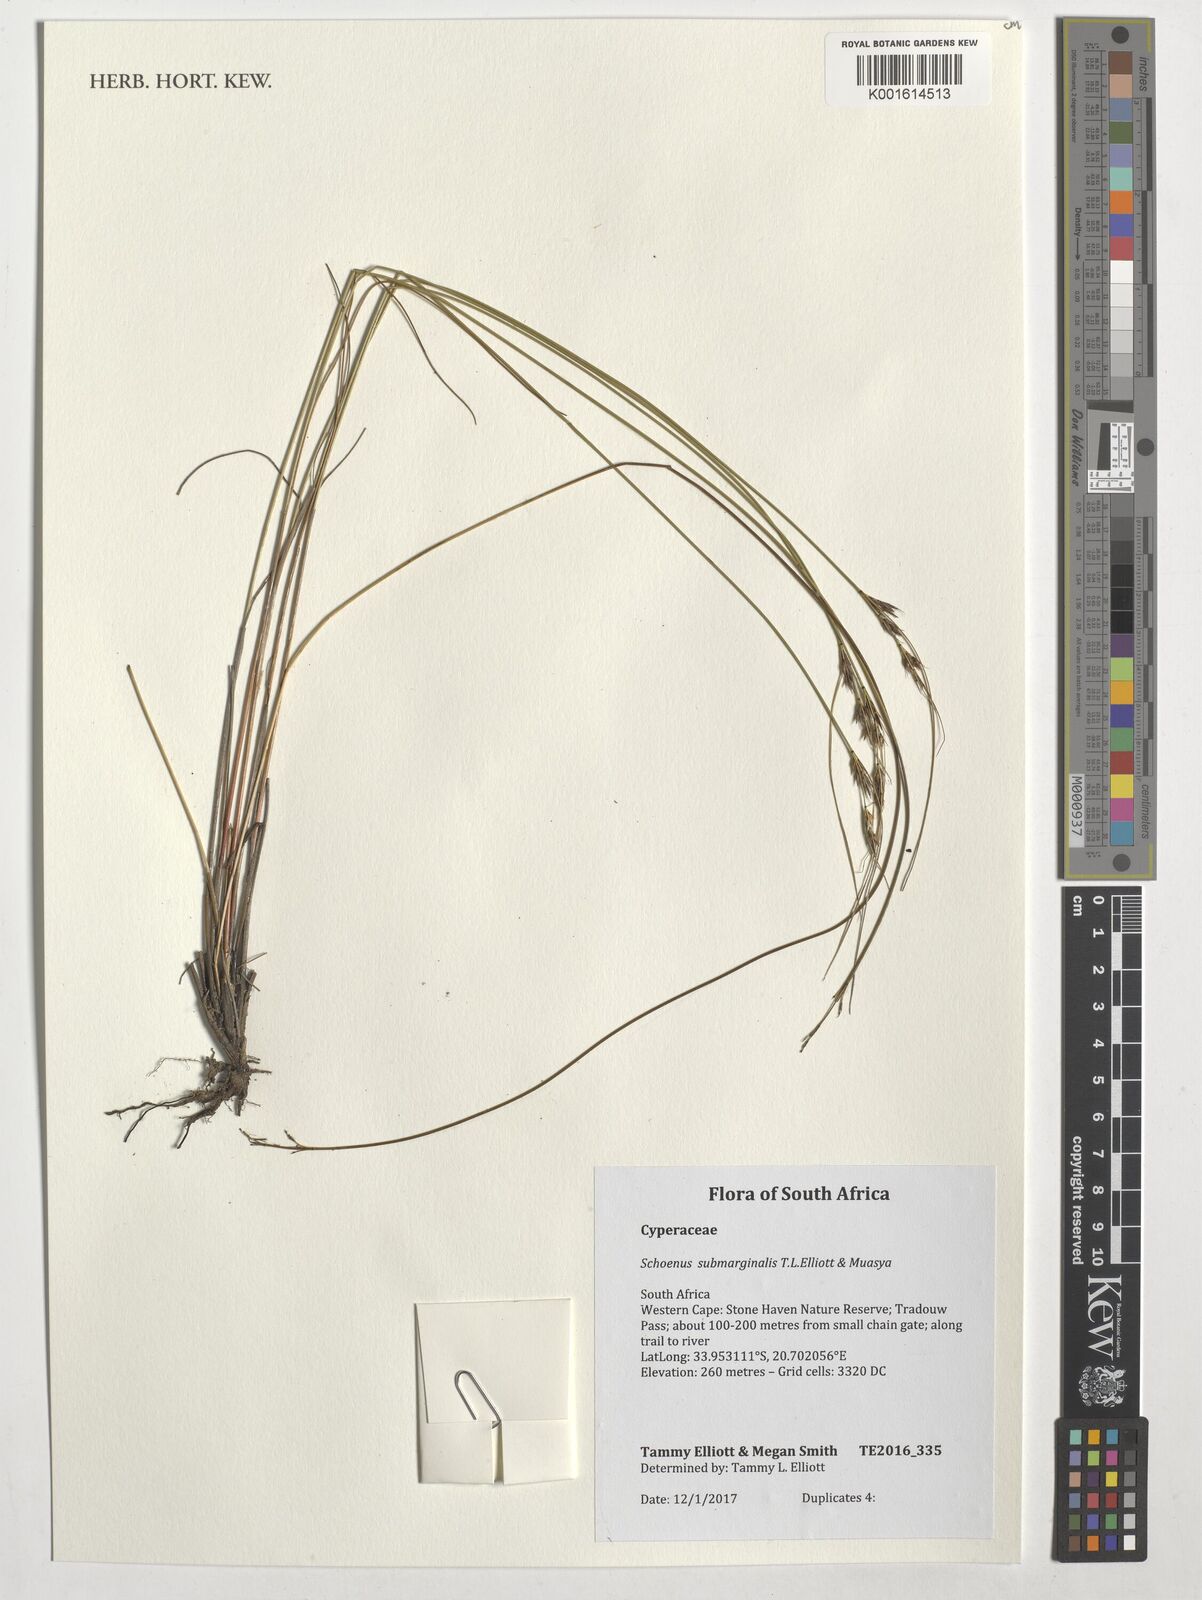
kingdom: Plantae
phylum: Tracheophyta
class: Liliopsida
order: Poales
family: Cyperaceae
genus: Schoenus
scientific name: Schoenus submarginalis
